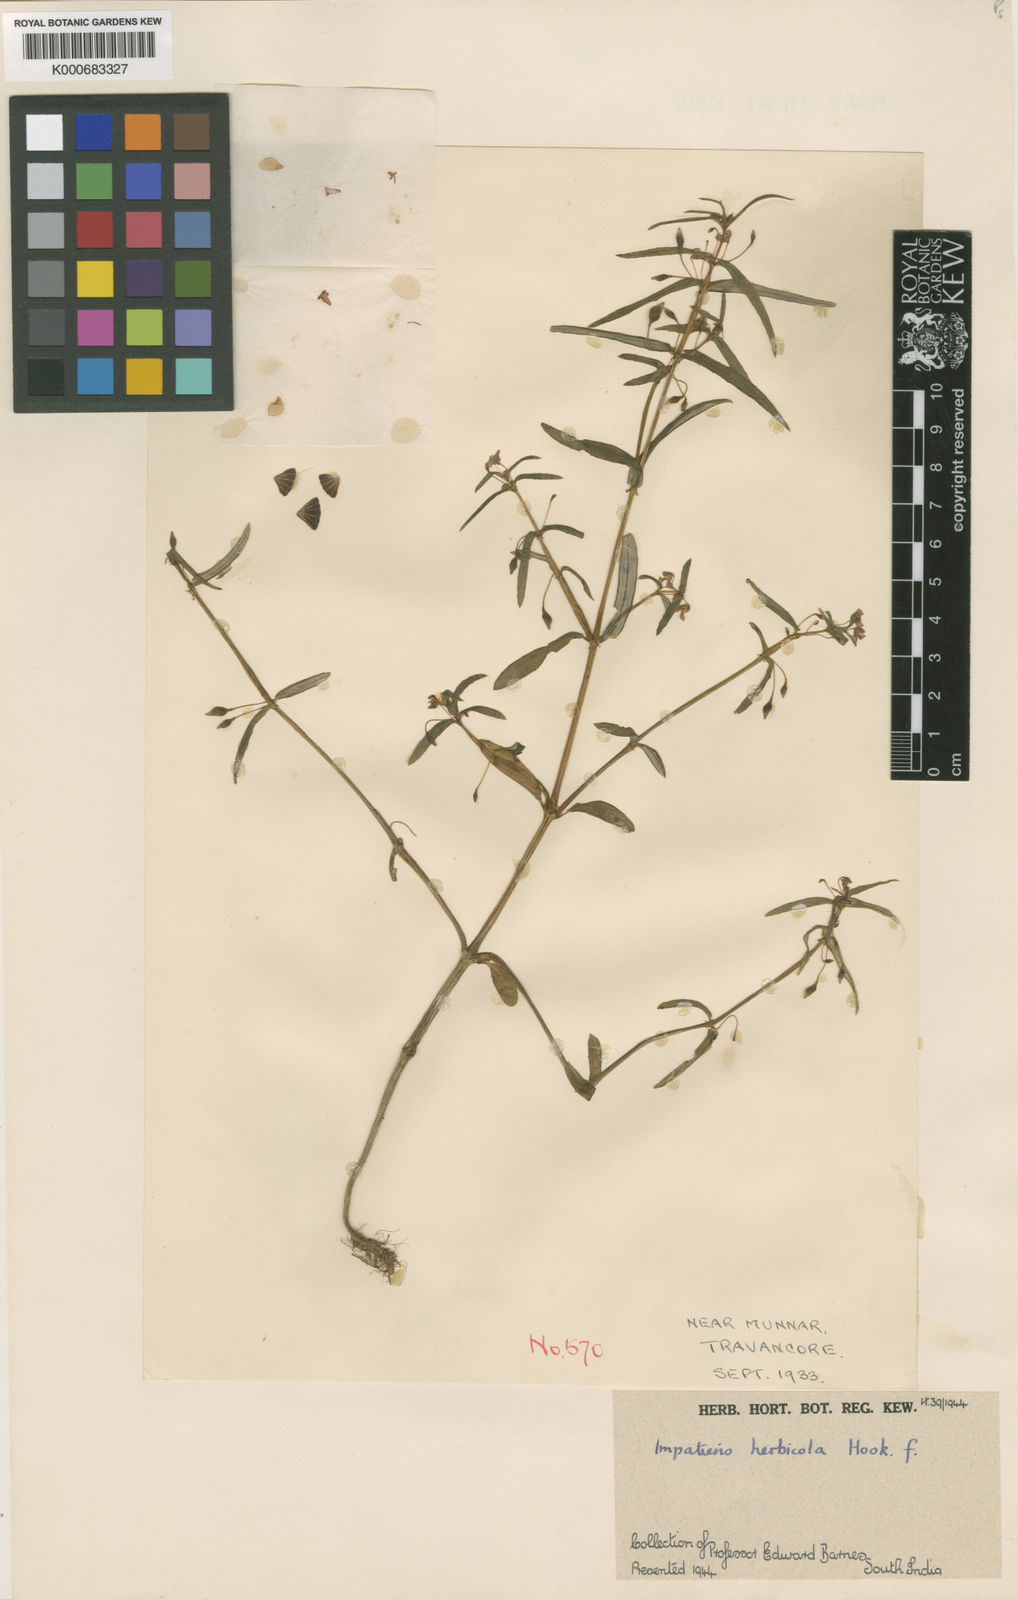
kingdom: Plantae
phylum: Tracheophyta
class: Magnoliopsida
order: Ericales
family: Balsaminaceae
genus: Impatiens
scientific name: Impatiens herbicola
